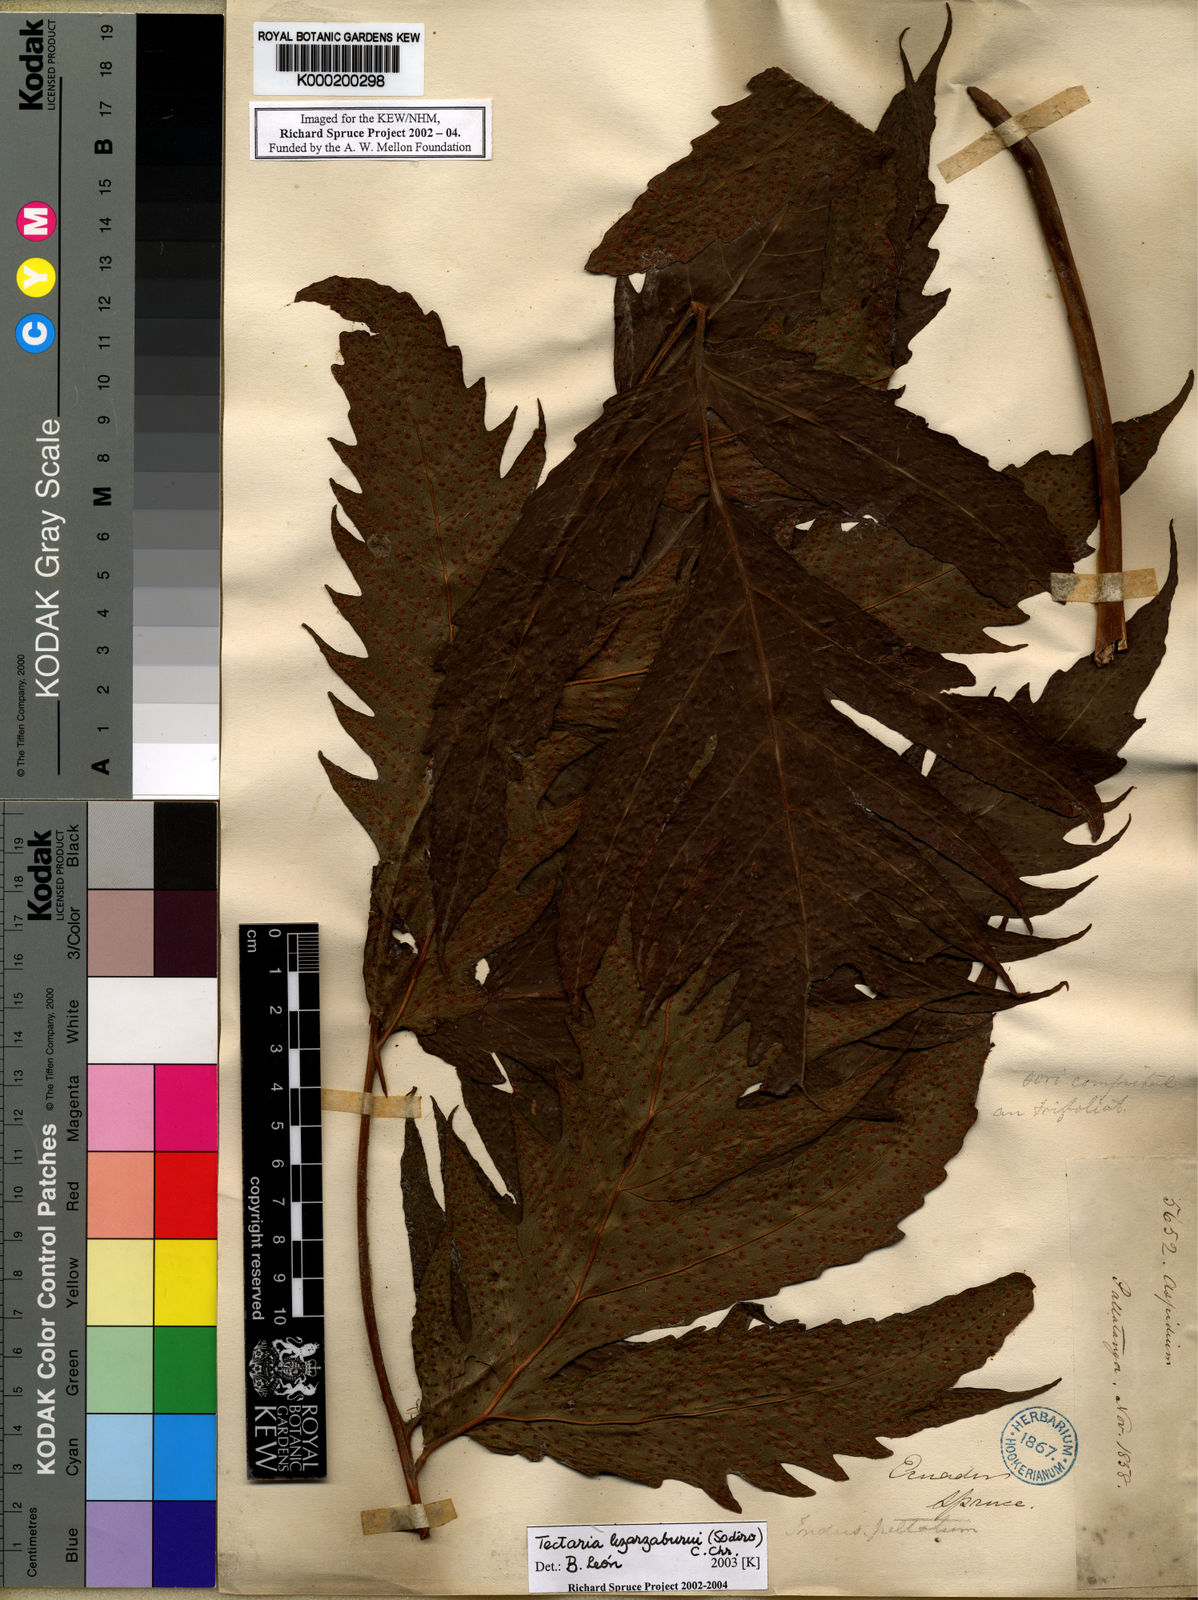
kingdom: Plantae
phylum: Tracheophyta
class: Polypodiopsida
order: Polypodiales
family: Tectariaceae
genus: Tectaria
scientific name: Tectaria lizarzaburui
